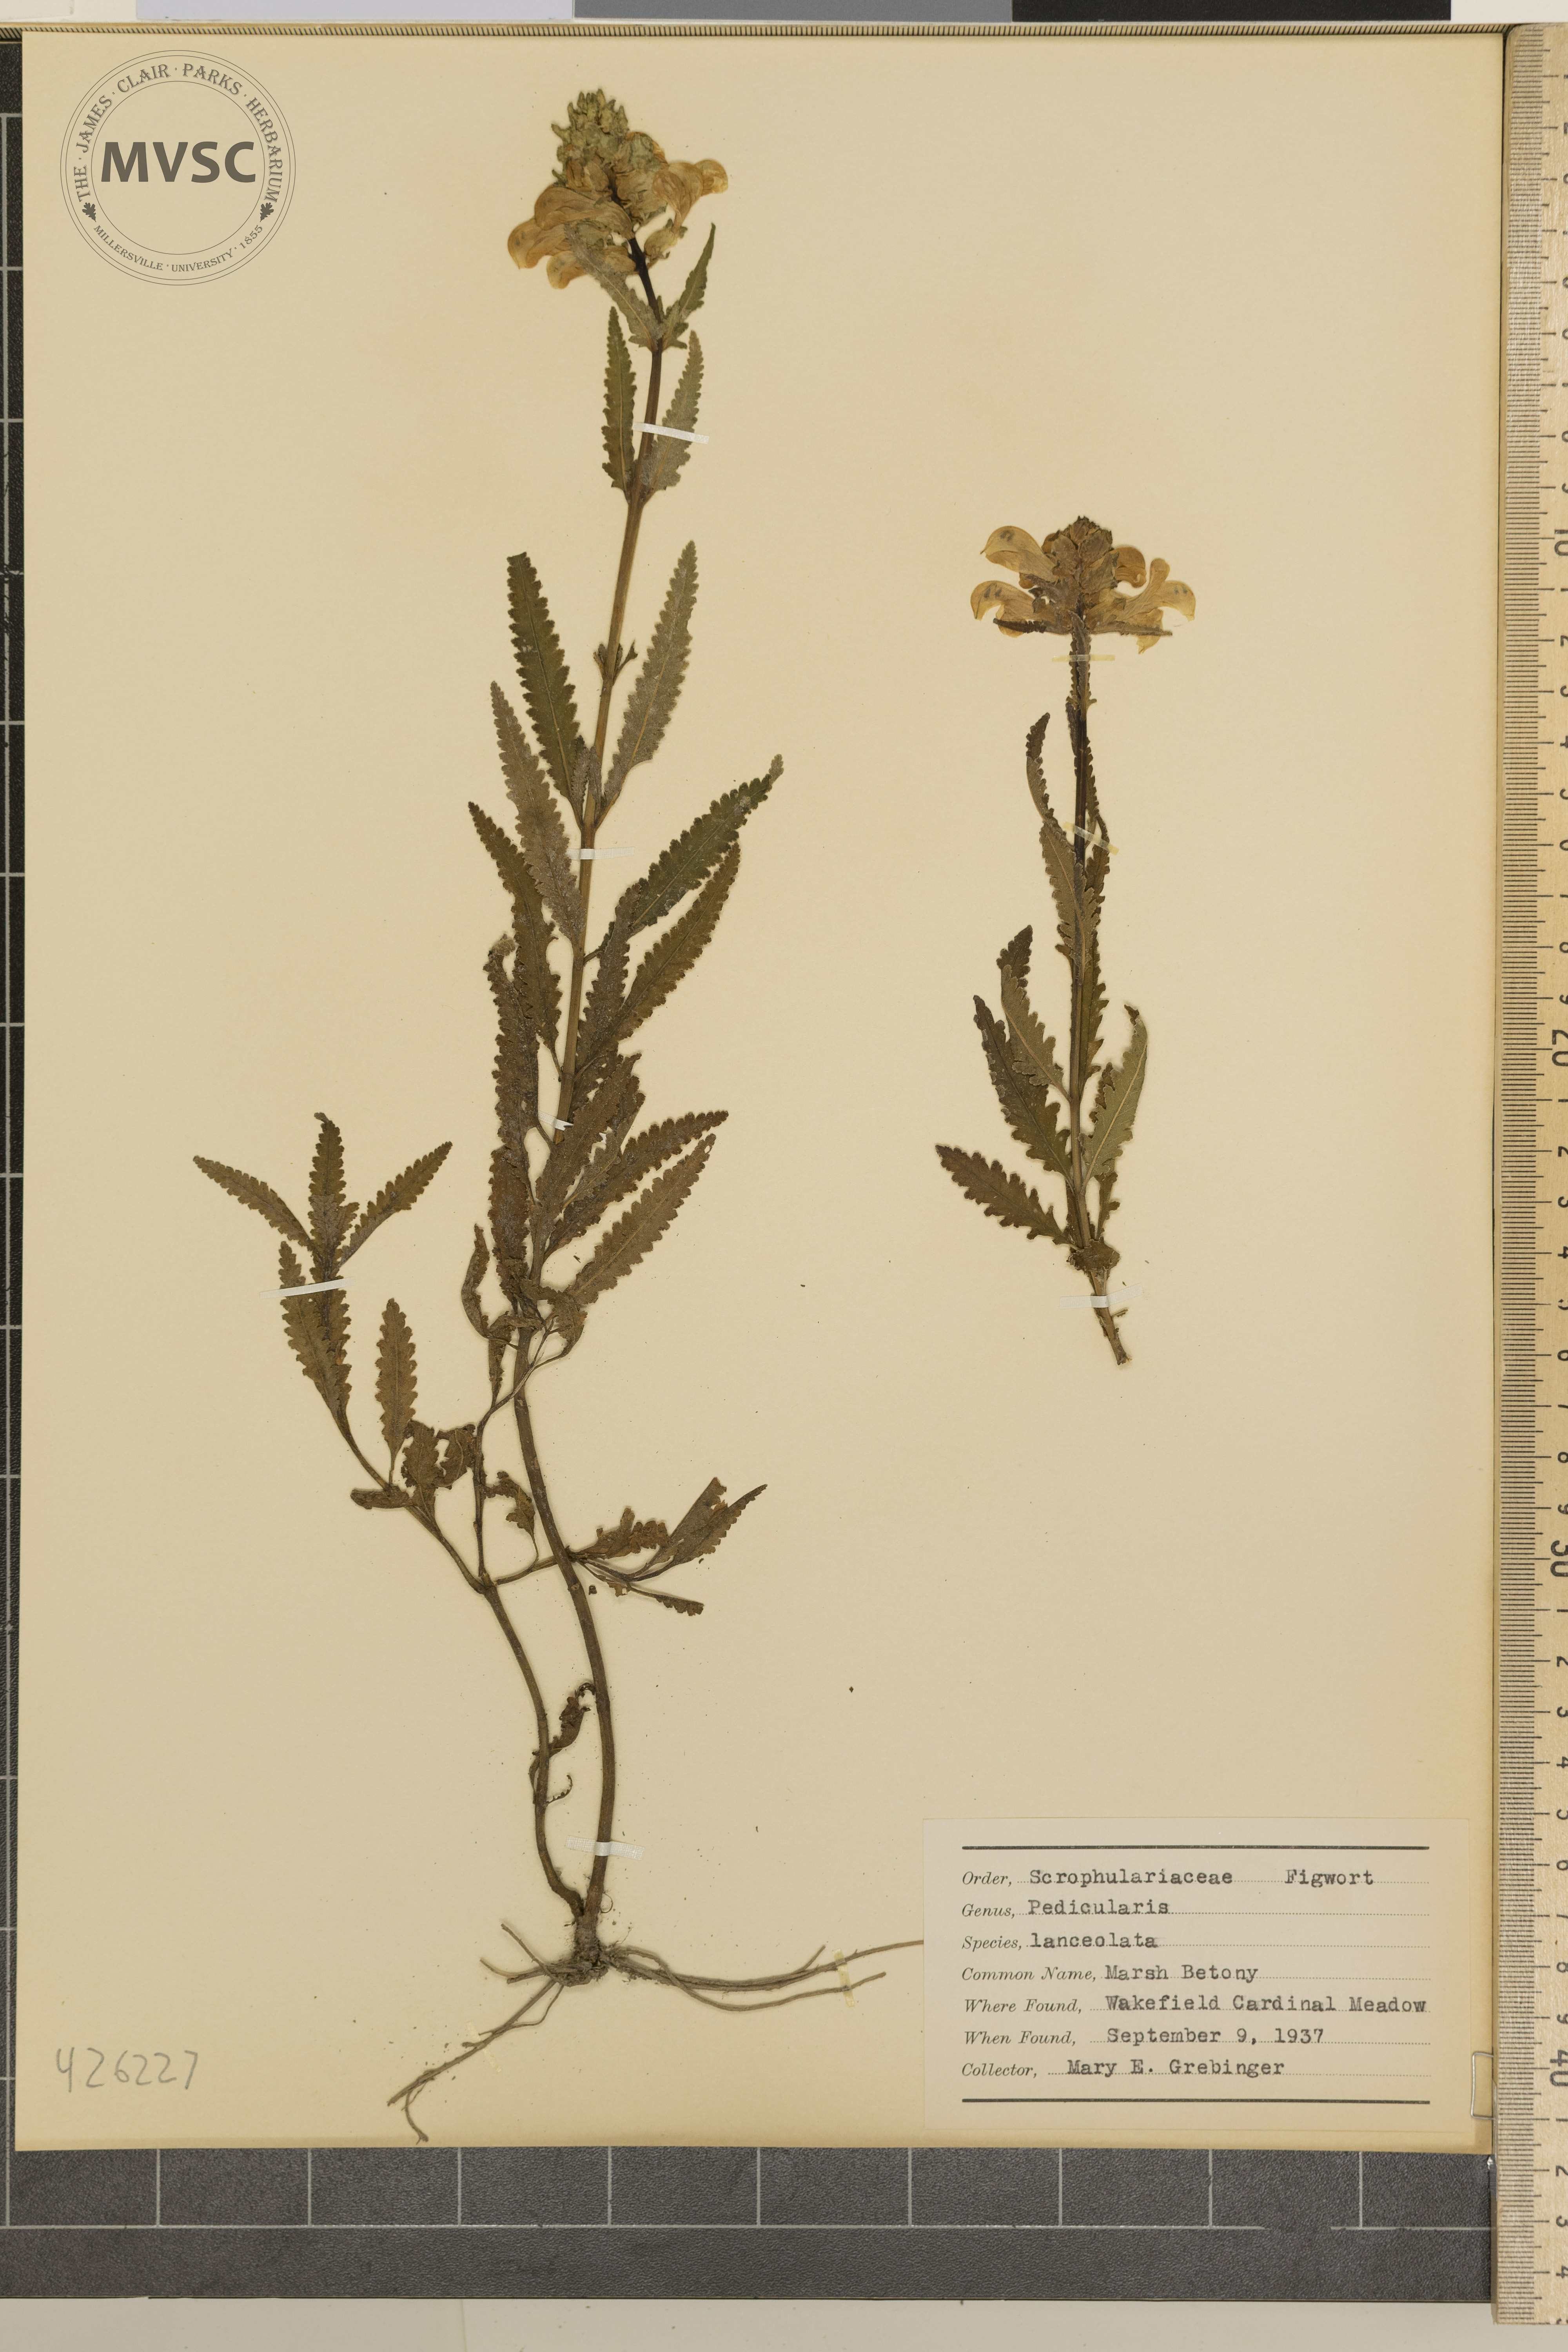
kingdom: Plantae
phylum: Tracheophyta
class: Magnoliopsida
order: Lamiales
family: Orobanchaceae
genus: Pedicularis
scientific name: Pedicularis lanceolata
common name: Marsh betony
